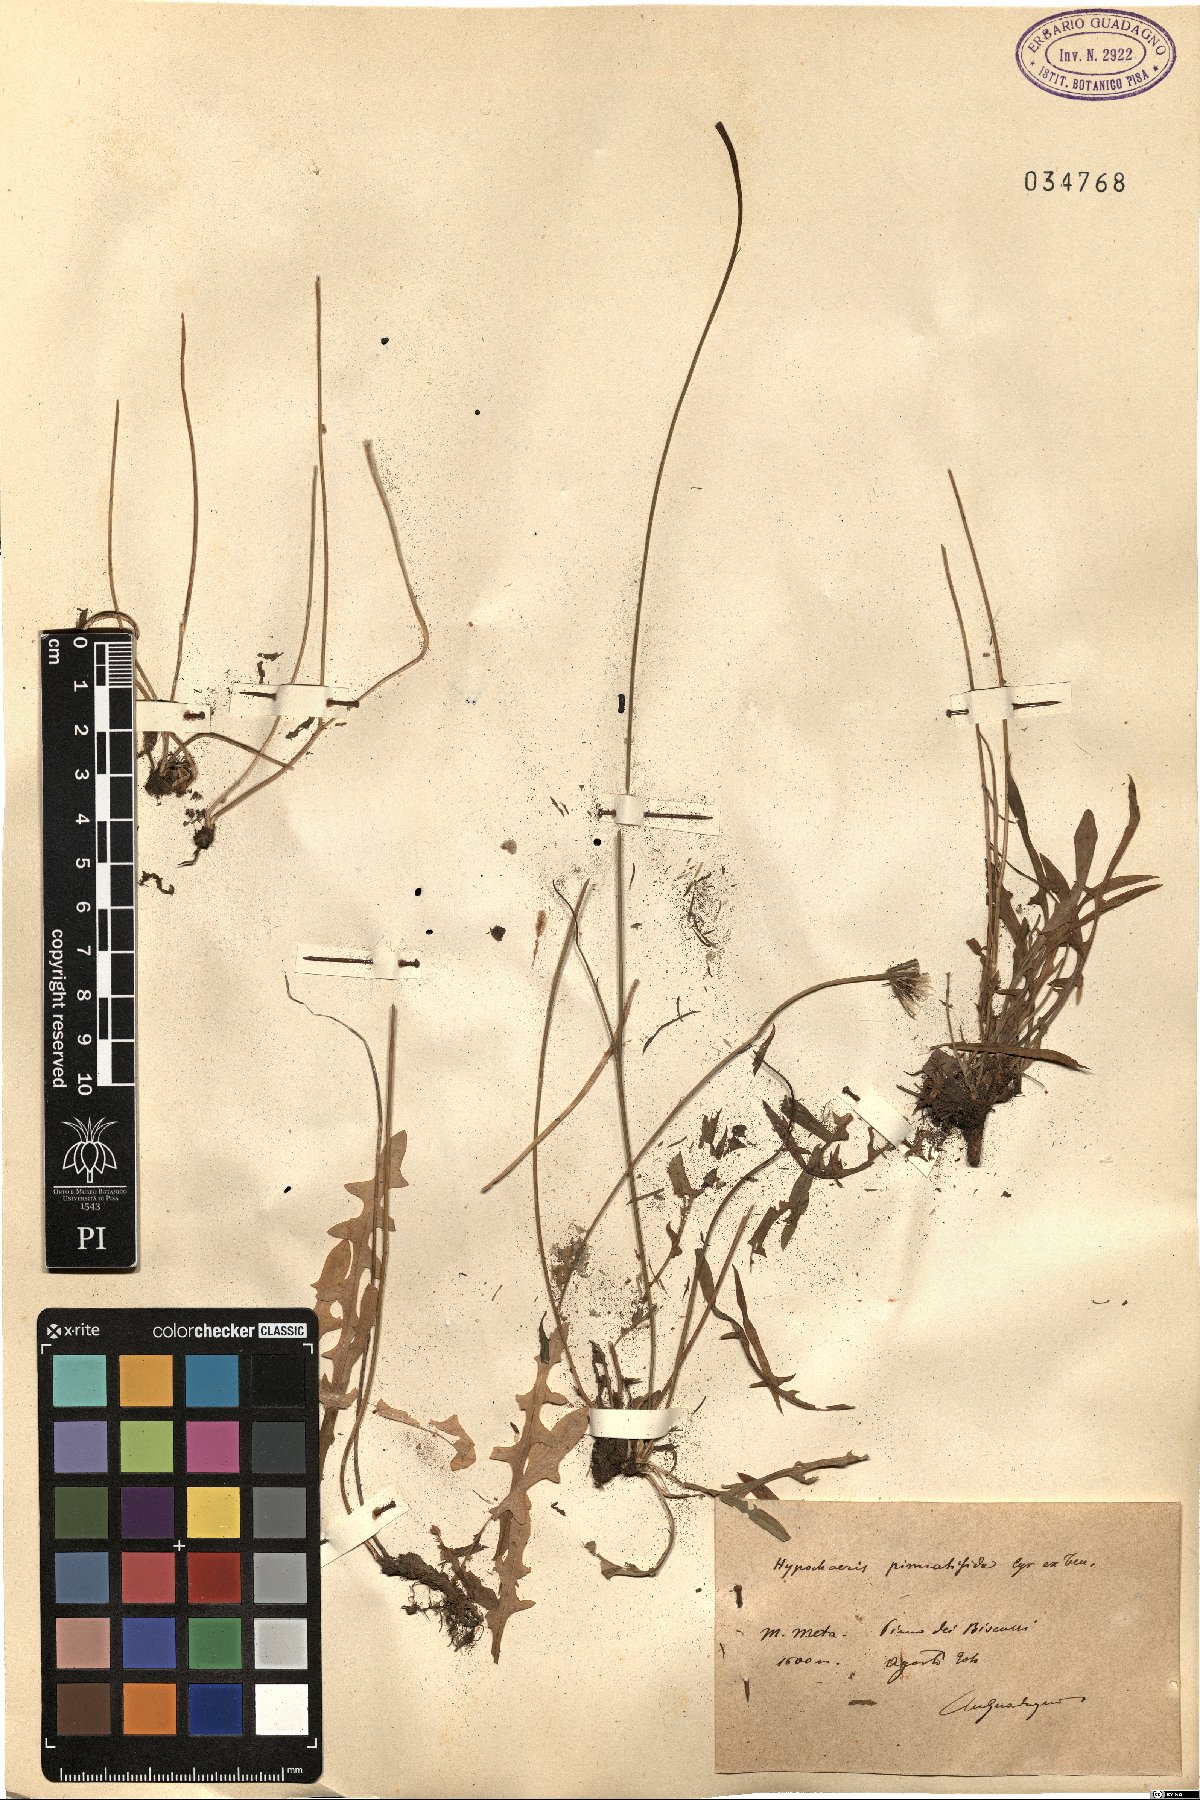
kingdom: Plantae
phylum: Tracheophyta
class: Magnoliopsida
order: Asterales
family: Asteraceae
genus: Hypochaeris
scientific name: Hypochaeris cretensis
